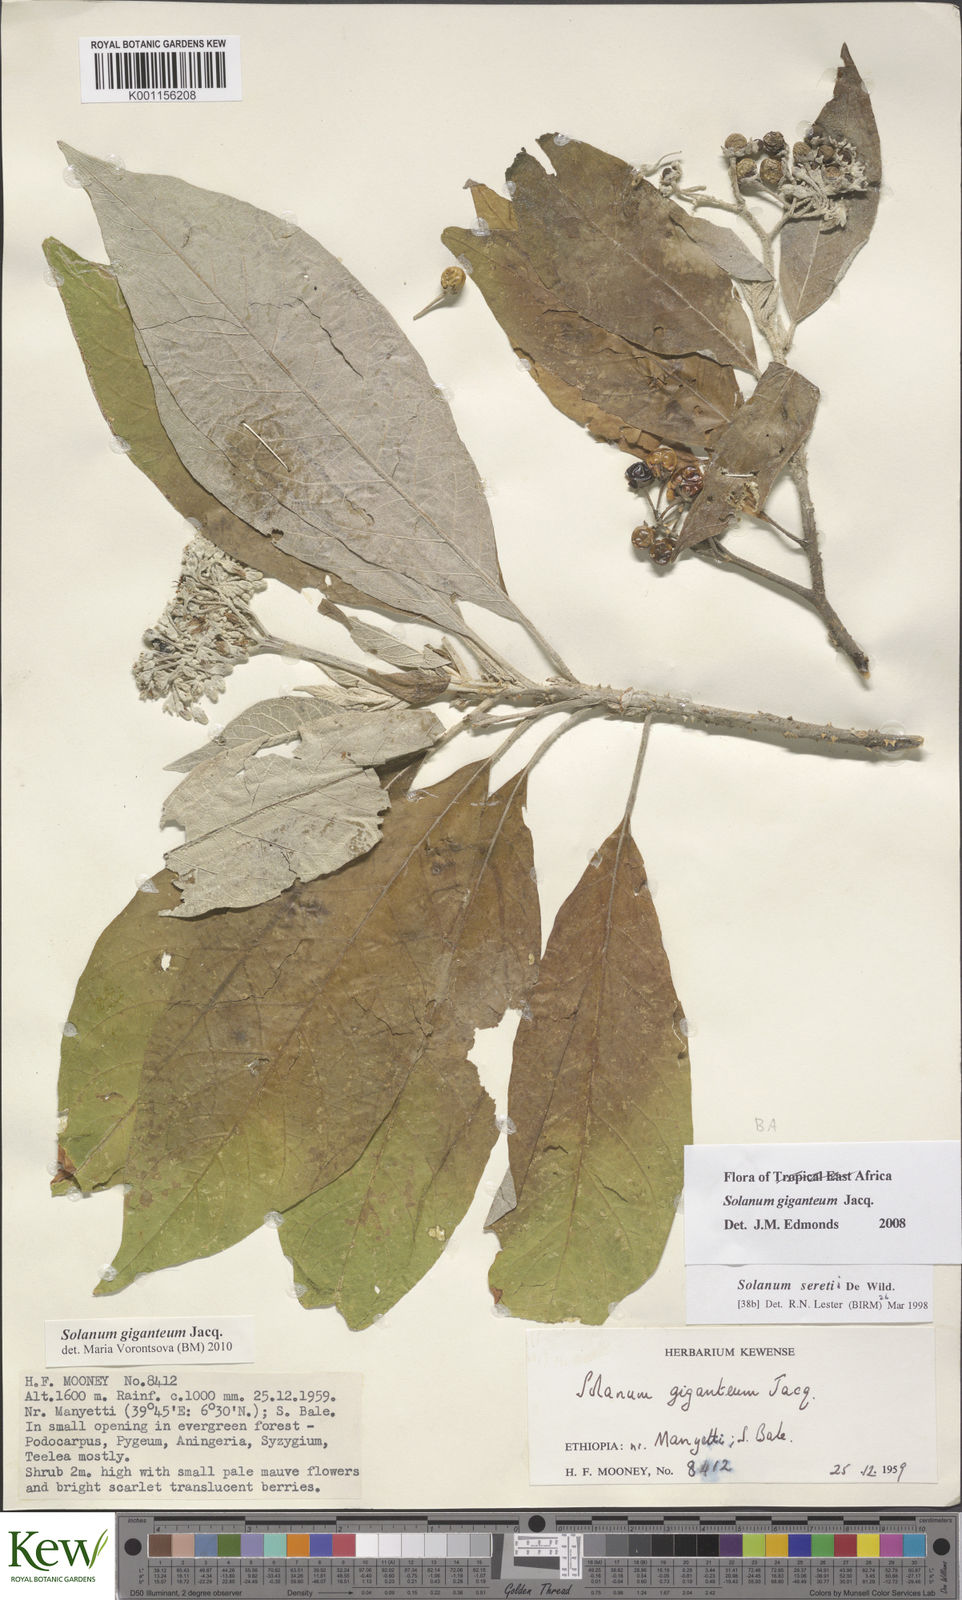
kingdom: Plantae
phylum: Tracheophyta
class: Magnoliopsida
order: Solanales
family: Solanaceae
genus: Solanum
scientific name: Solanum giganteum
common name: Healing-leaf-tree
